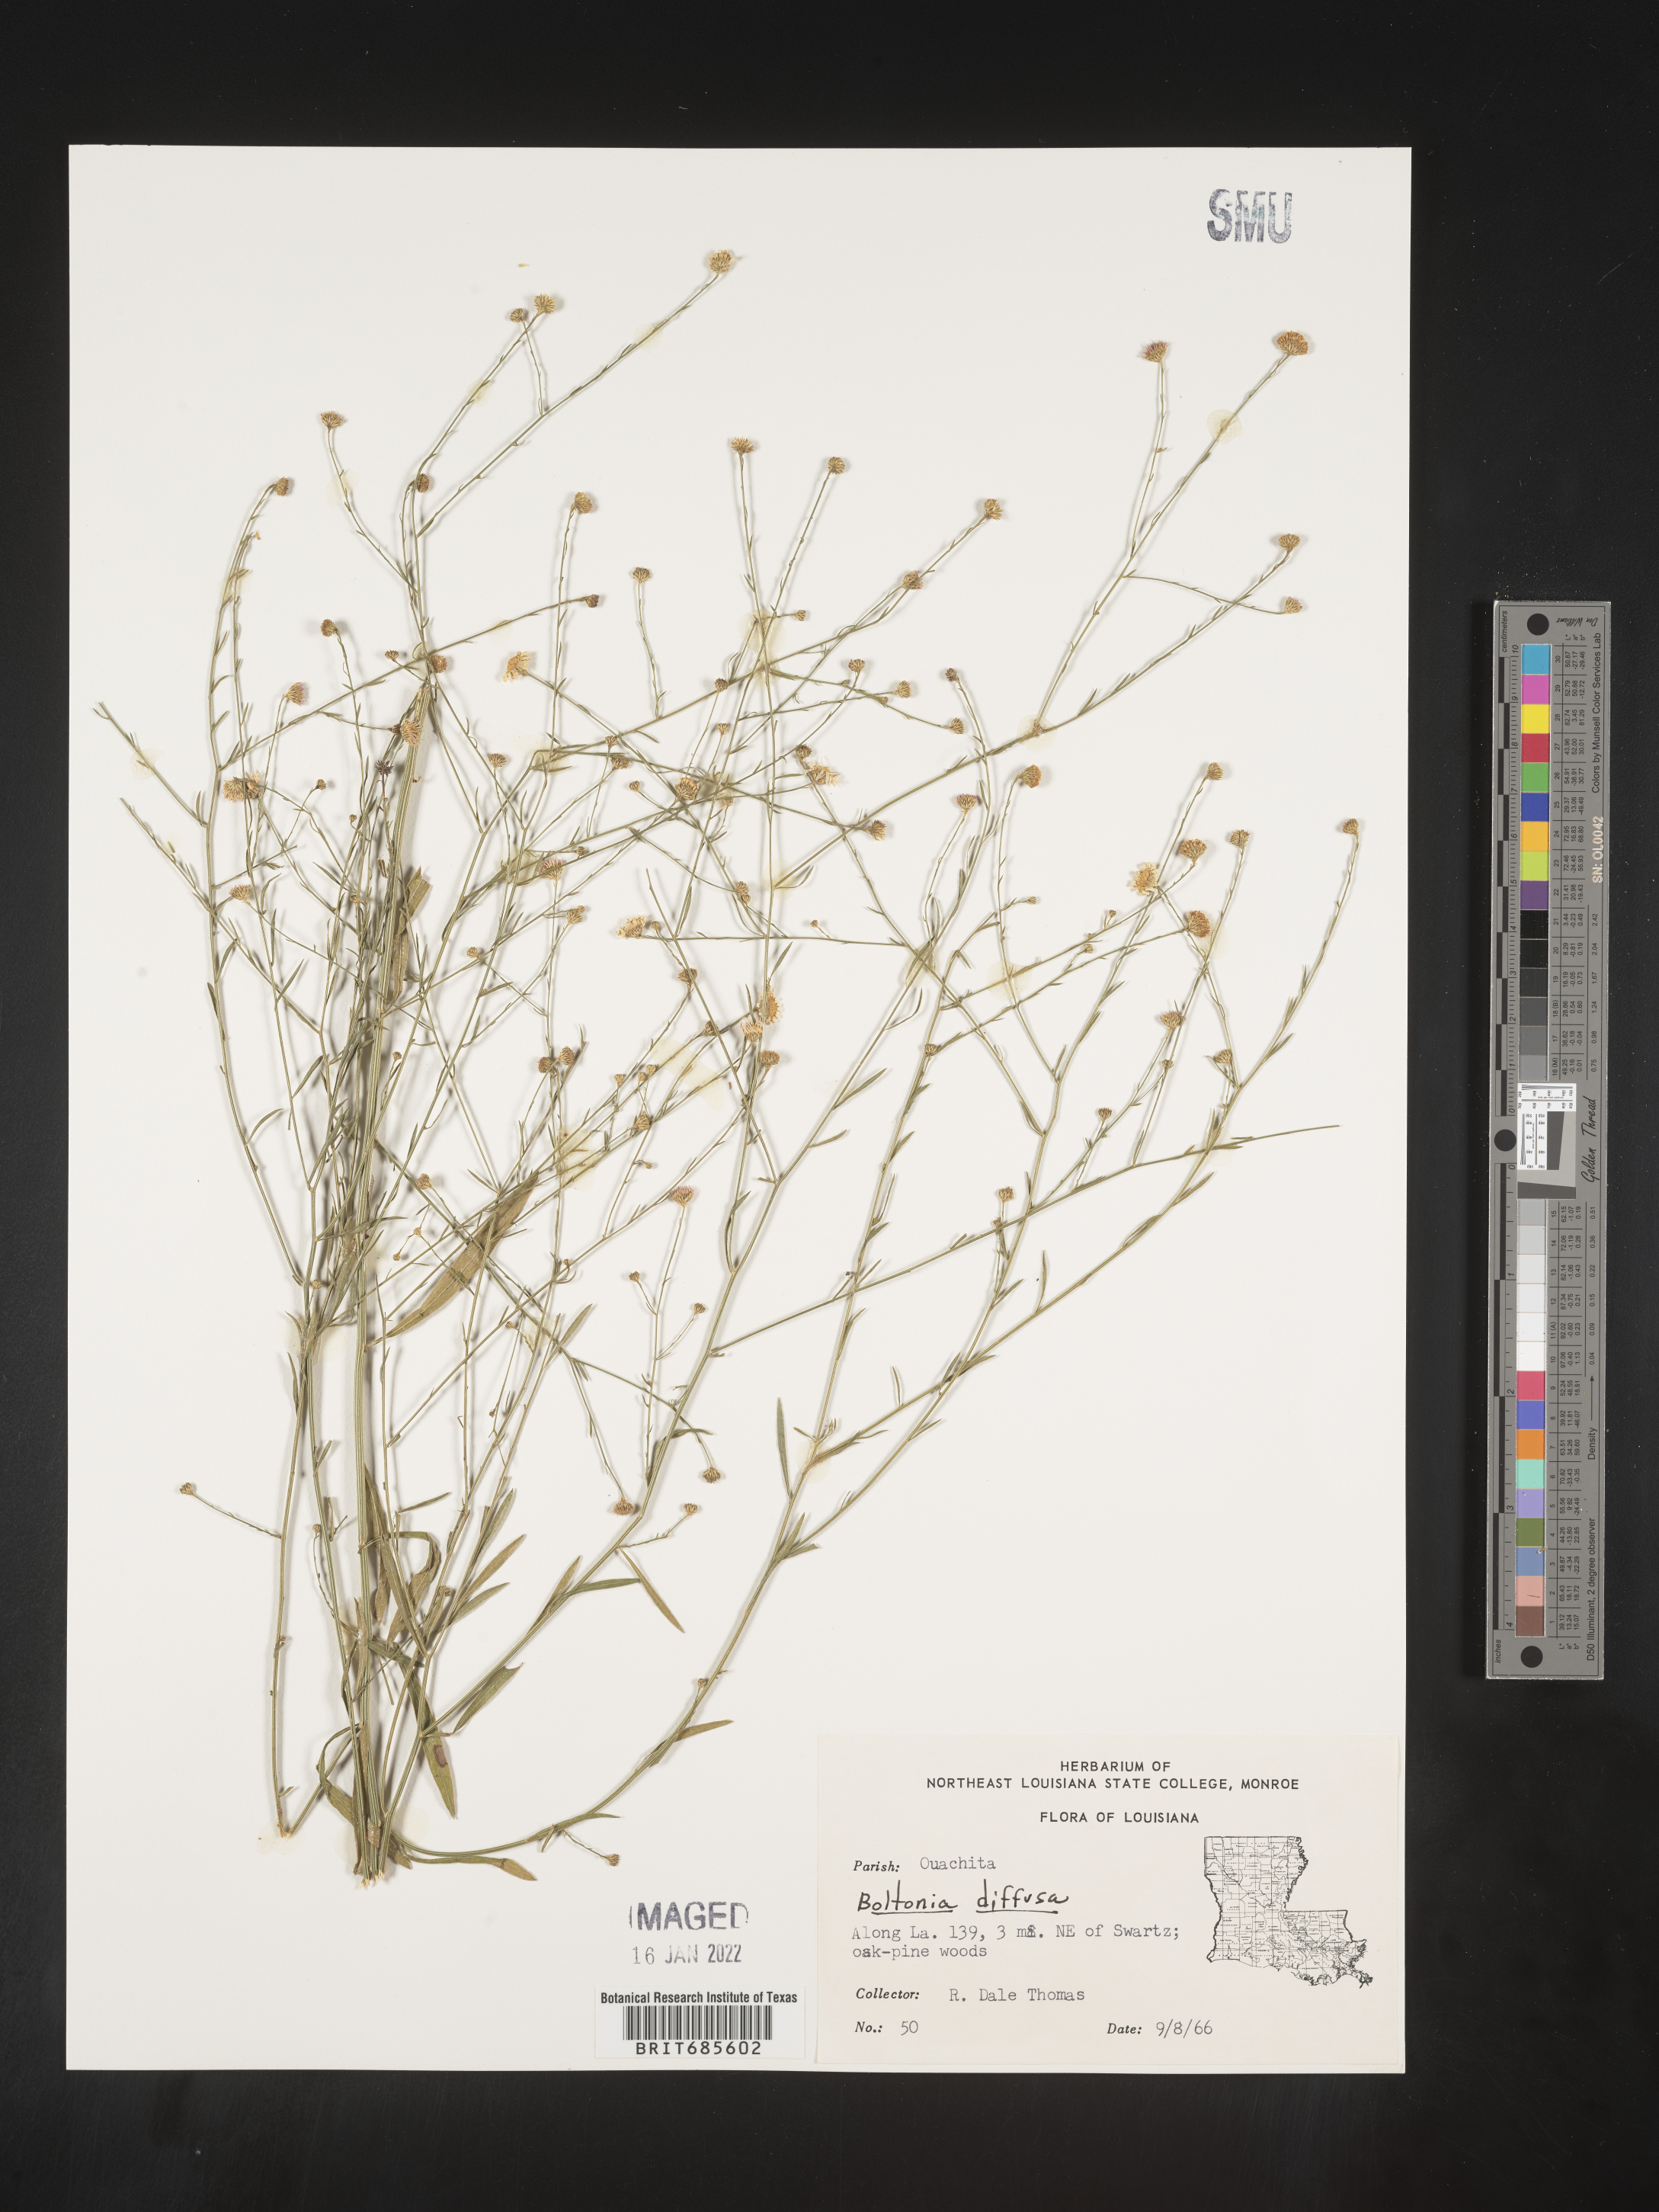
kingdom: Plantae
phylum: Tracheophyta
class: Magnoliopsida
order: Asterales
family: Asteraceae
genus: Boltonia
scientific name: Boltonia diffusa
